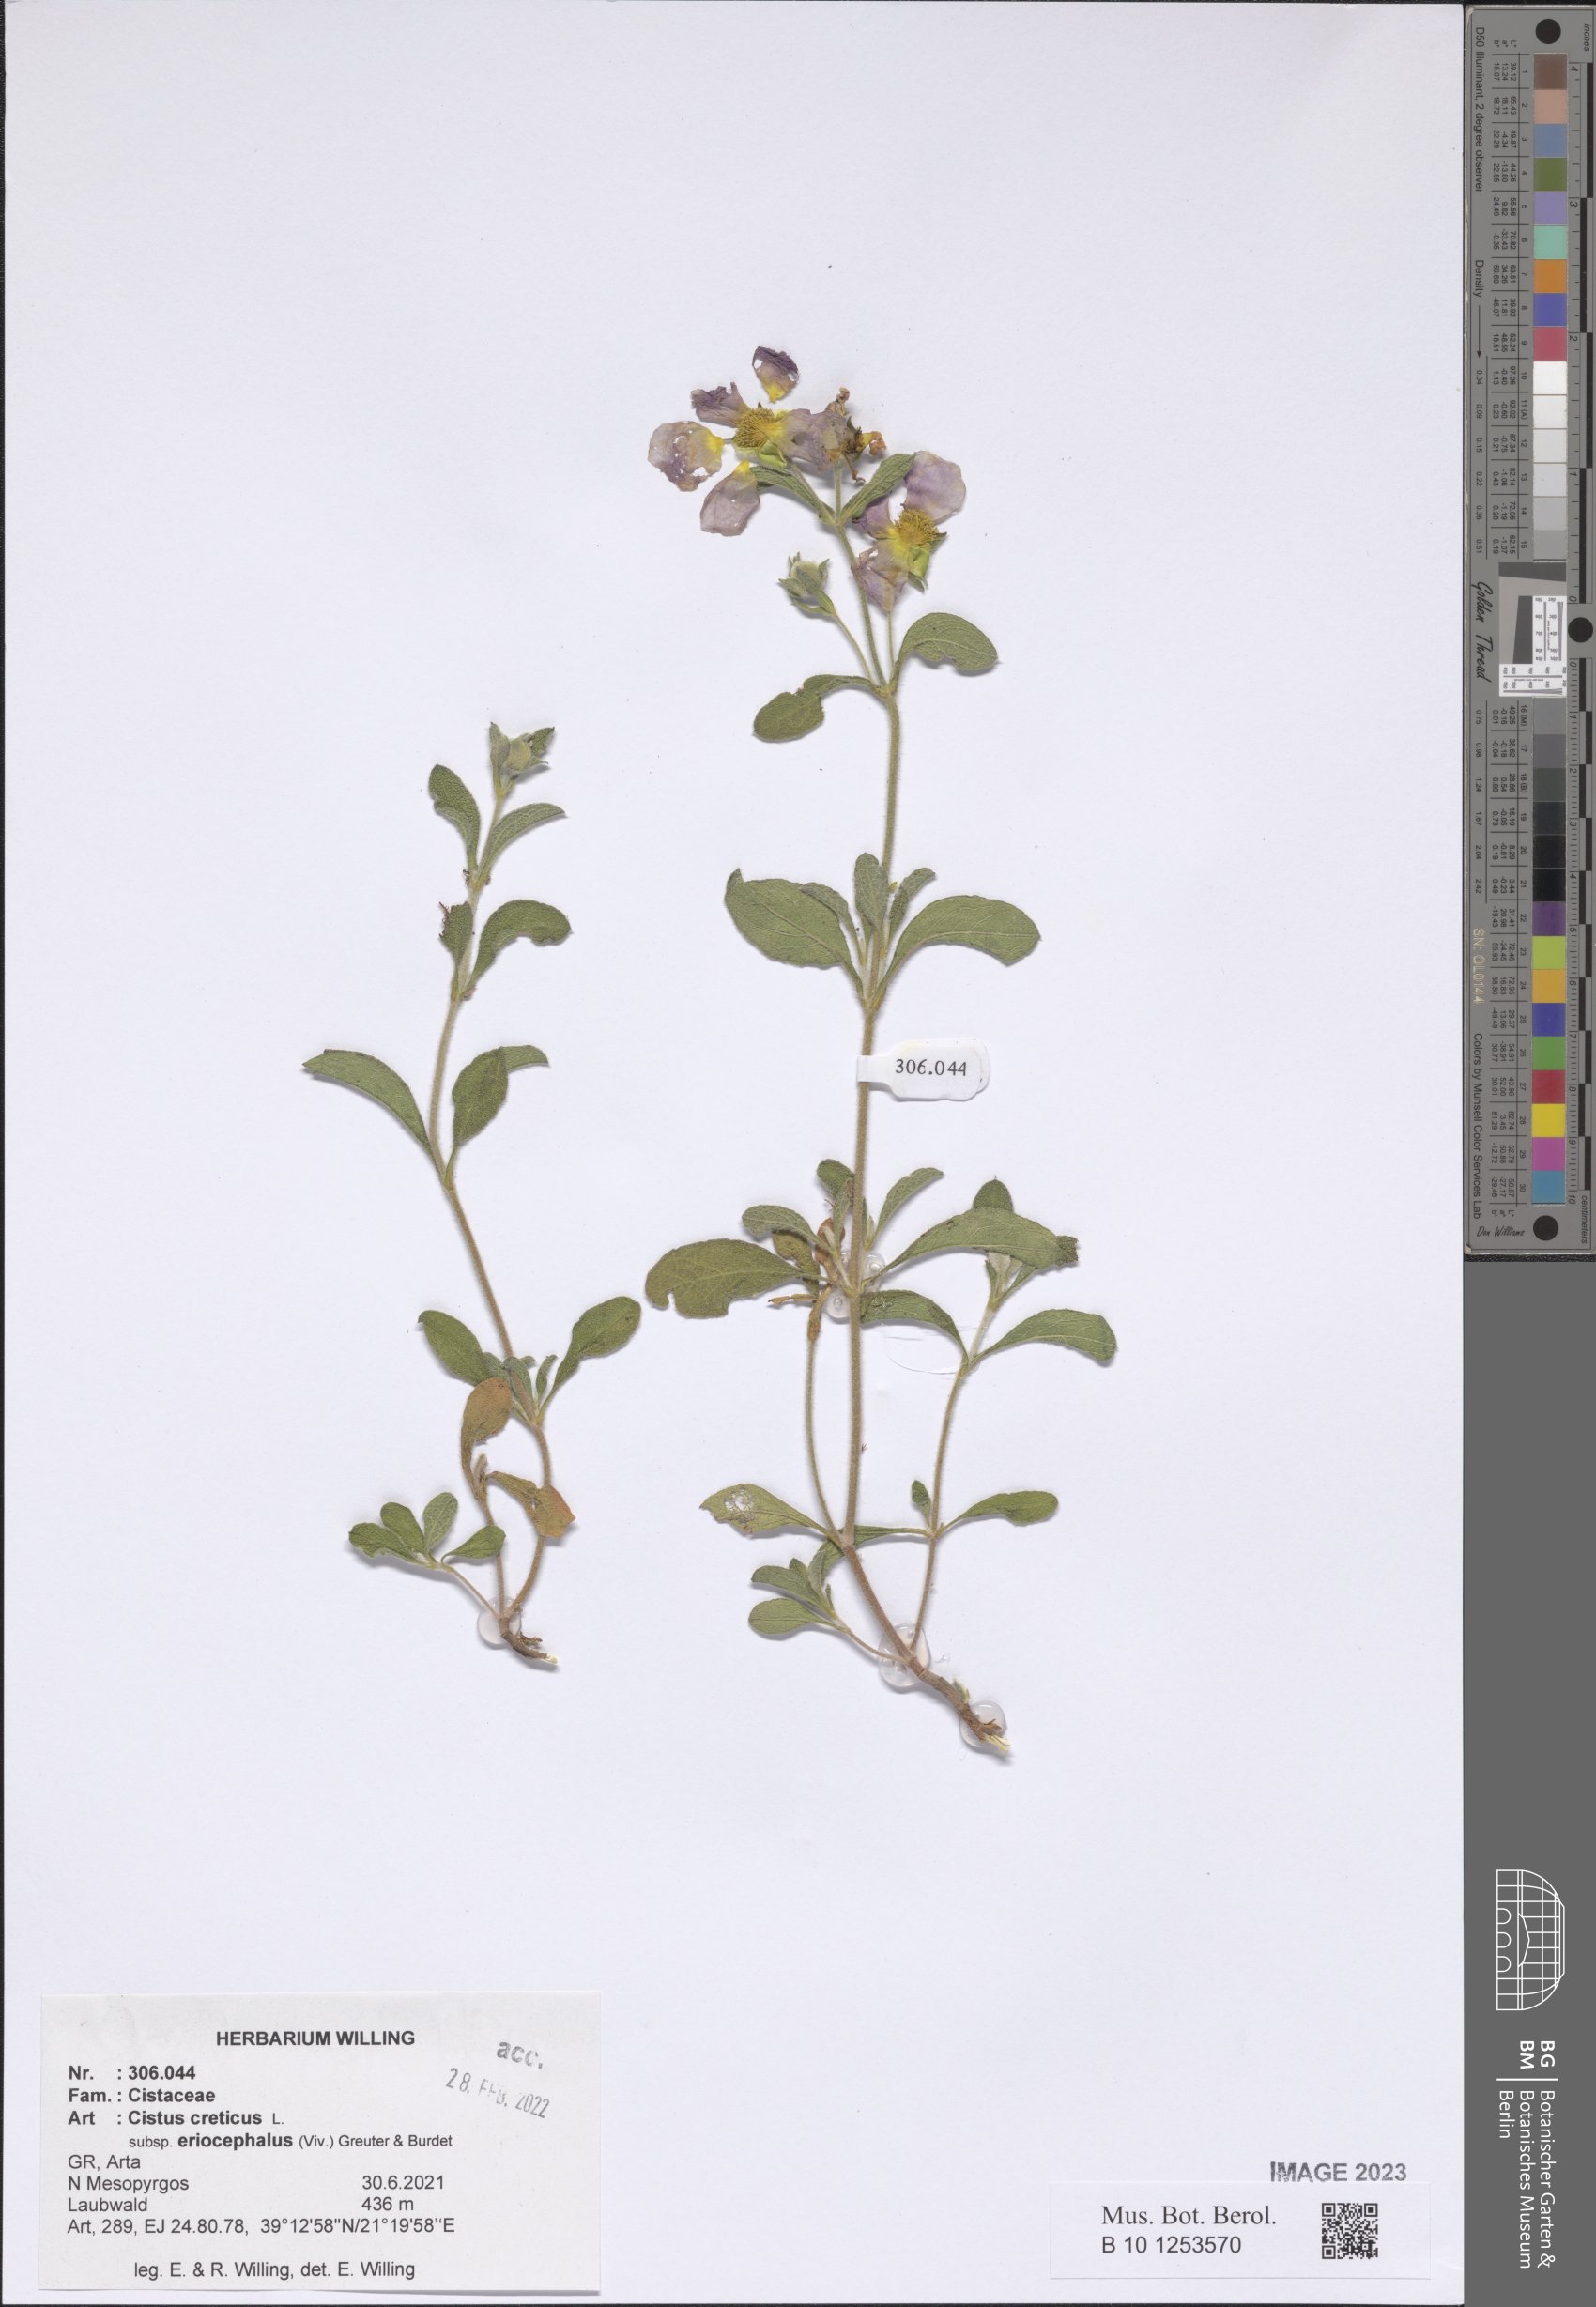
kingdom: Plantae
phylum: Tracheophyta
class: Magnoliopsida
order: Malvales
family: Cistaceae
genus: Cistus
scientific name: Cistus tauricus
